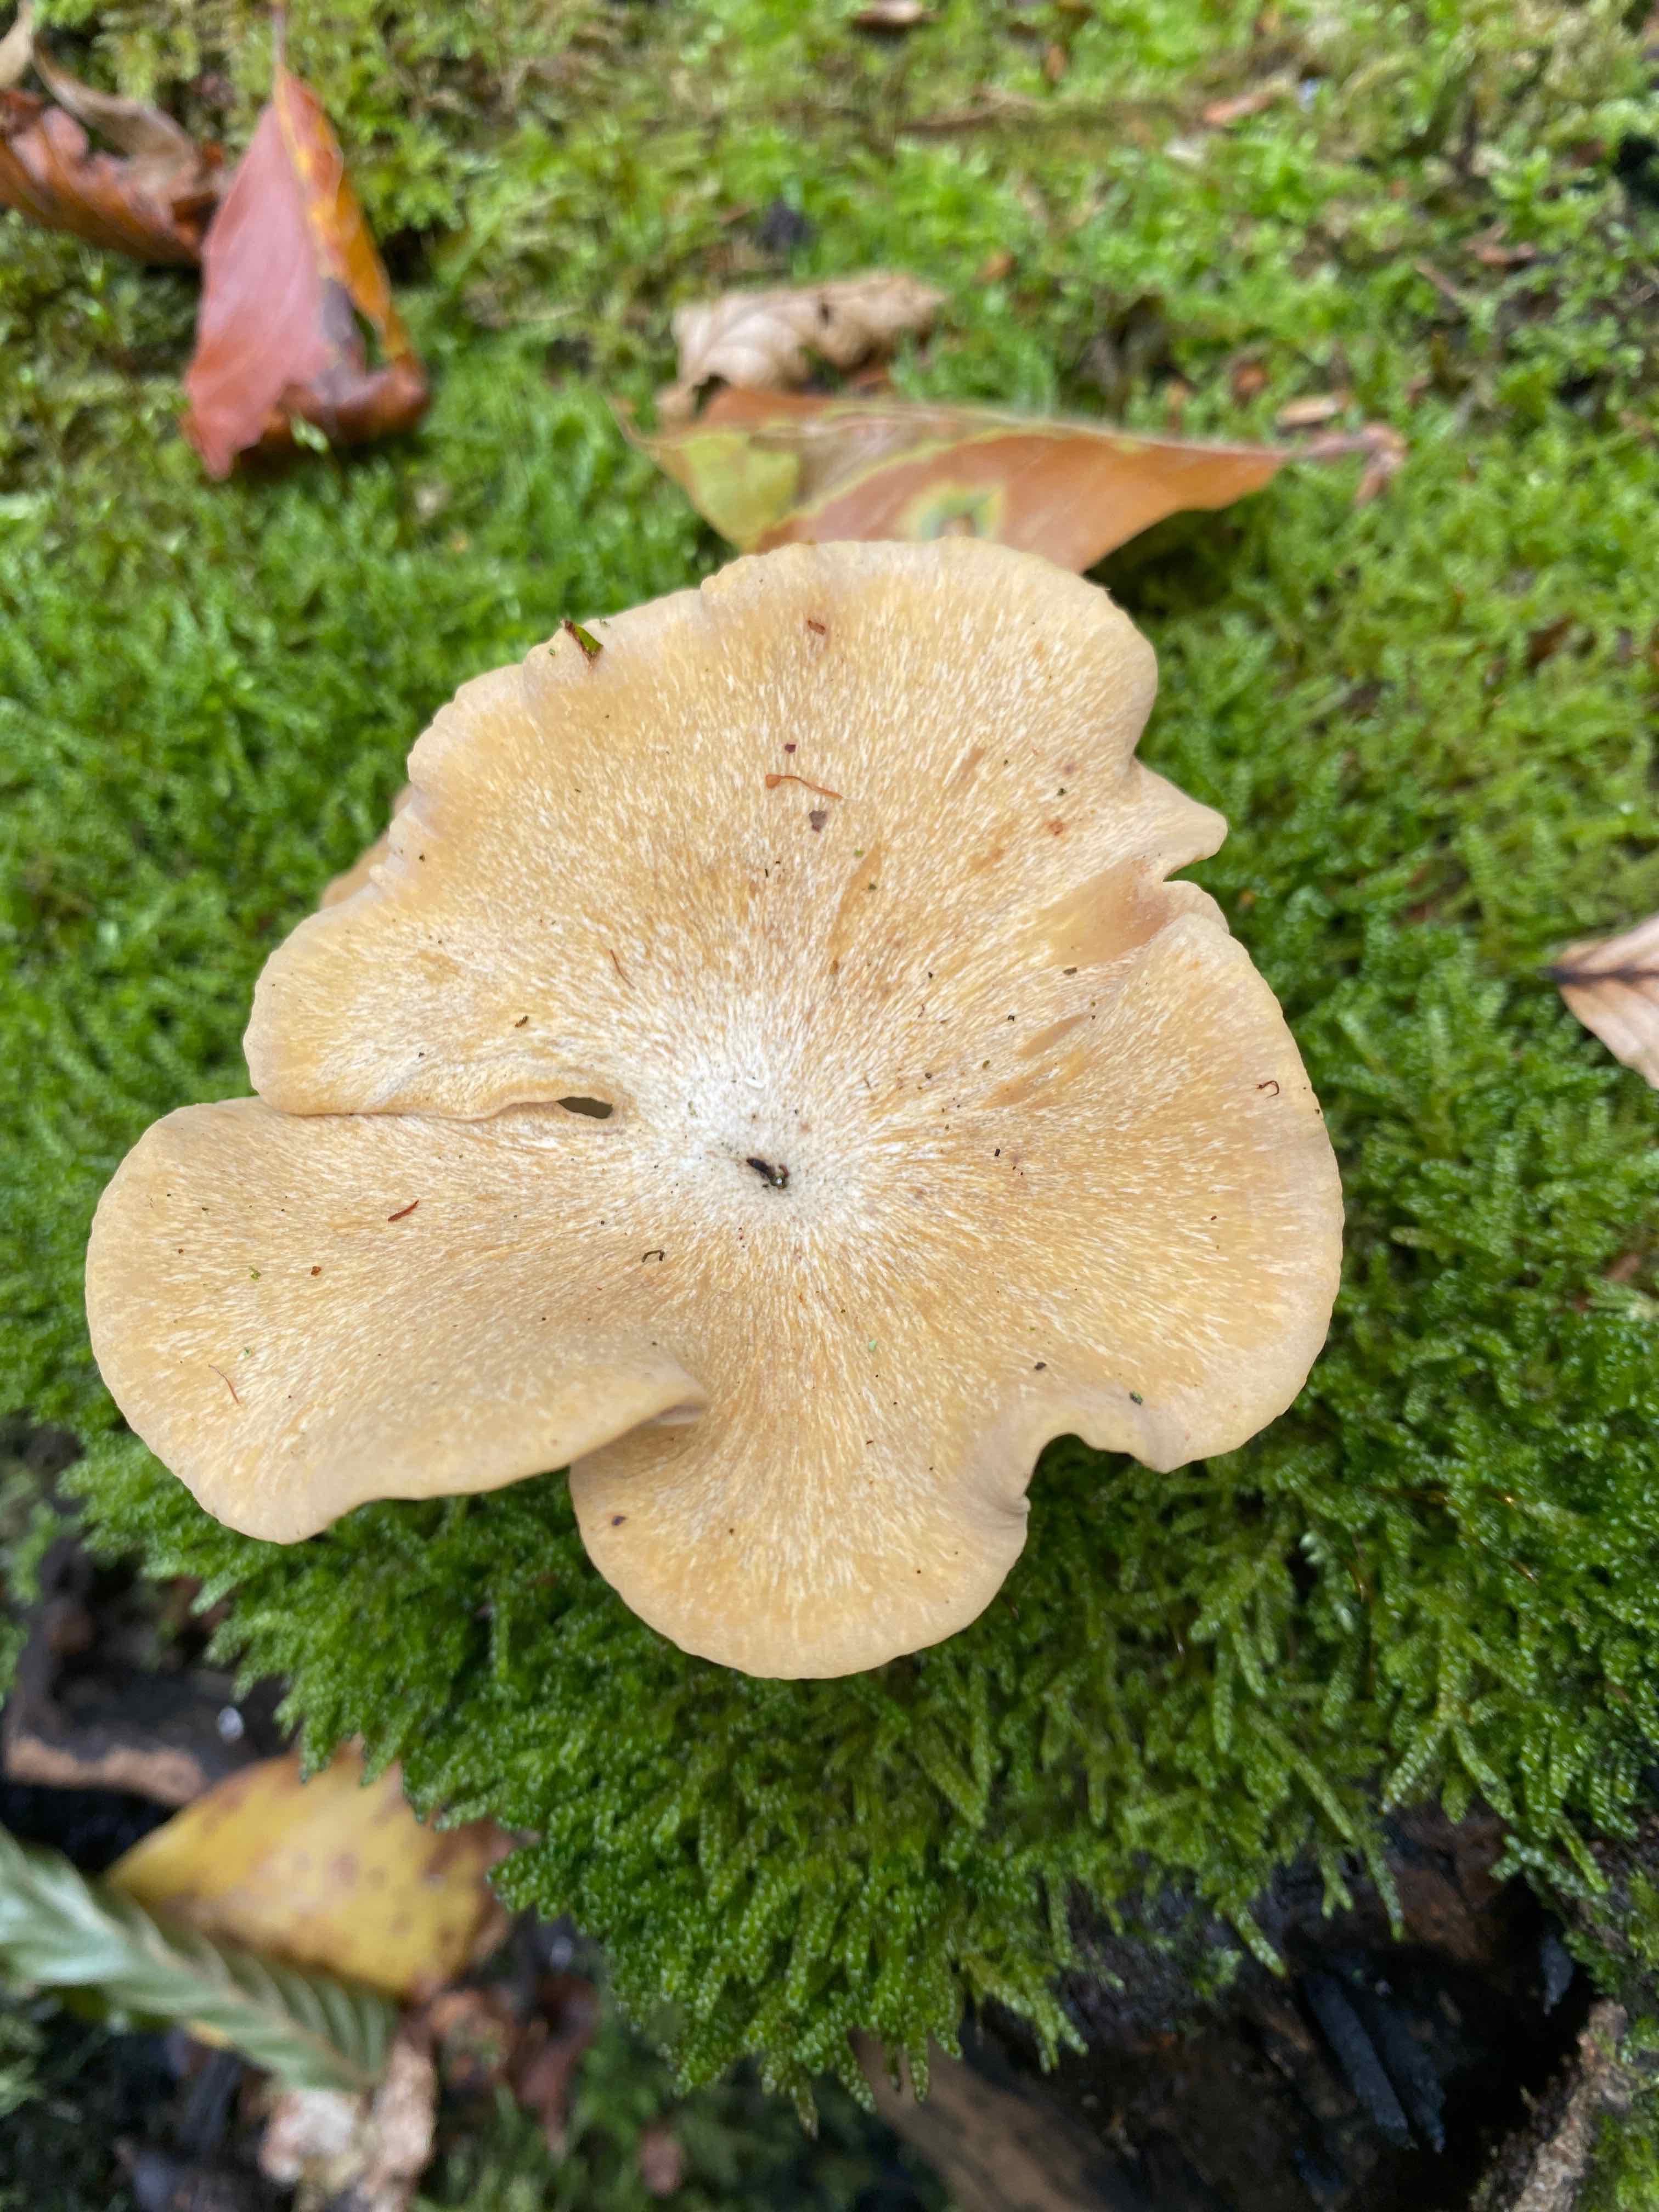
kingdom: Fungi
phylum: Basidiomycota
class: Agaricomycetes
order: Polyporales
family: Polyporaceae
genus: Cerioporus
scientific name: Cerioporus varius
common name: foranderlig stilkporesvamp
